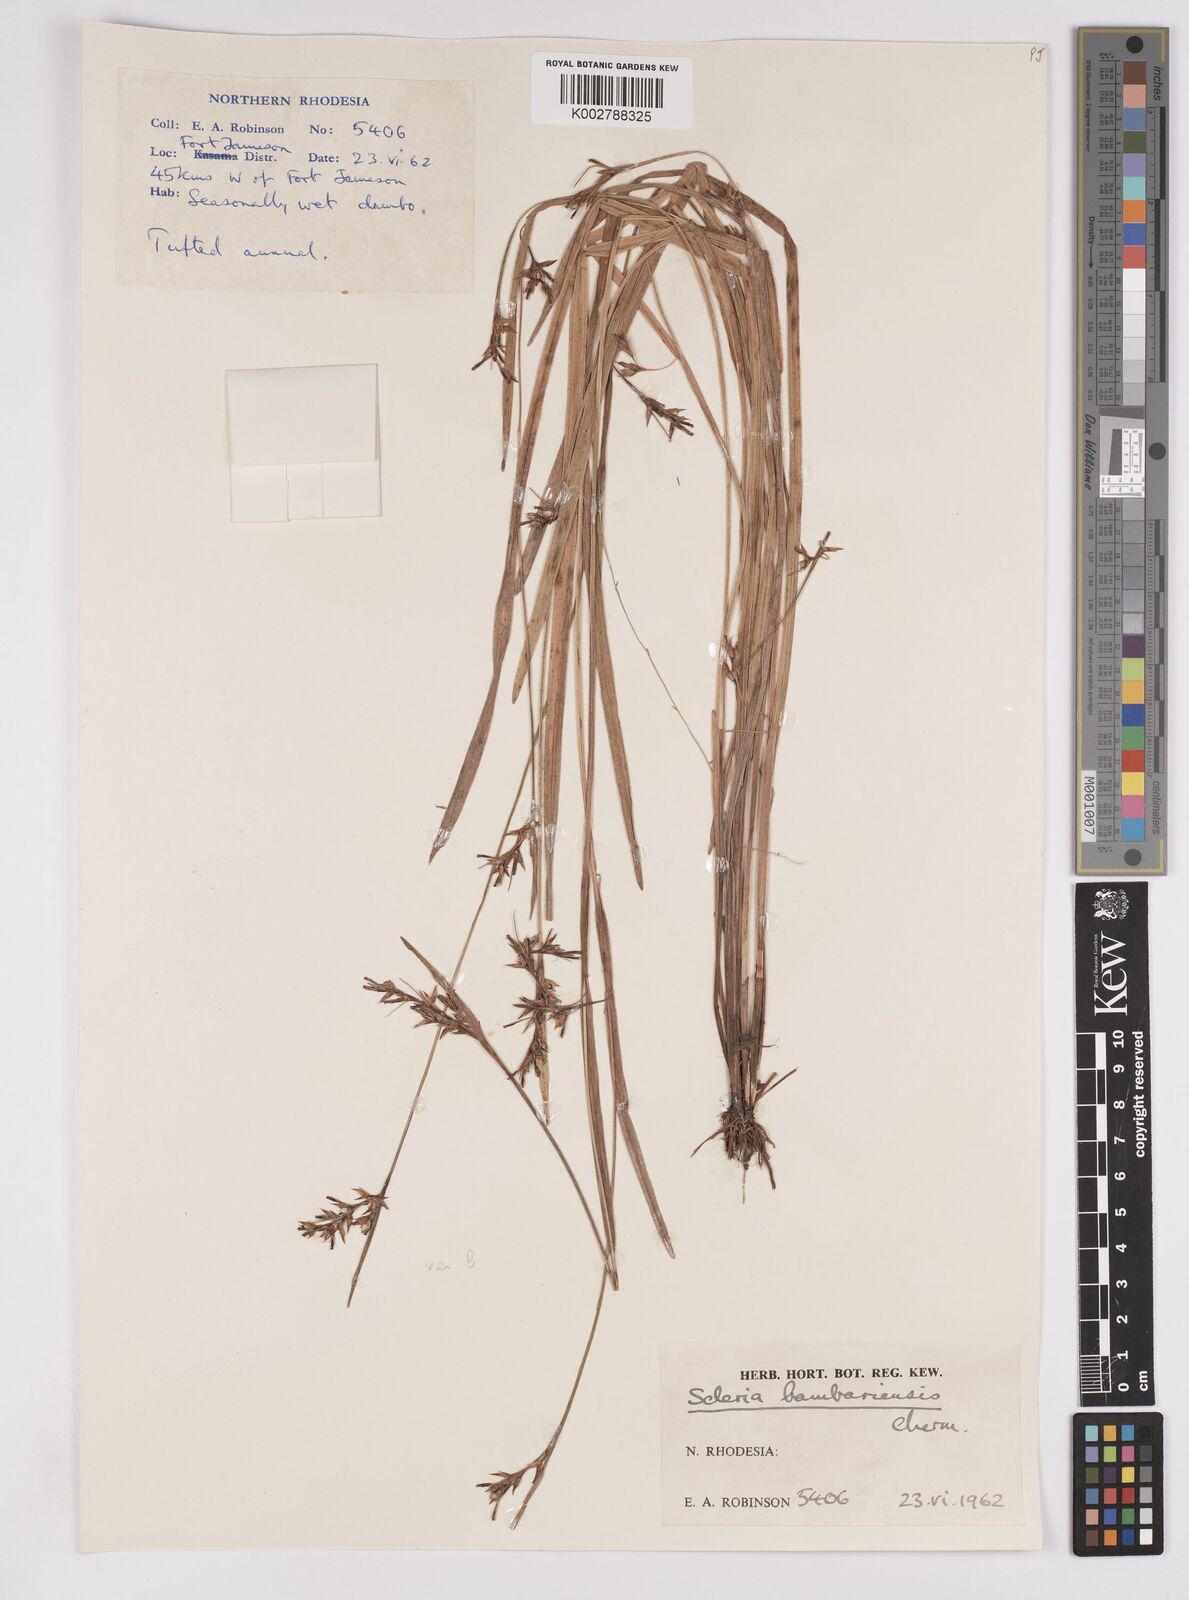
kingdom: Plantae
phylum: Tracheophyta
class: Liliopsida
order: Poales
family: Cyperaceae
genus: Scleria
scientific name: Scleria bambariensis
